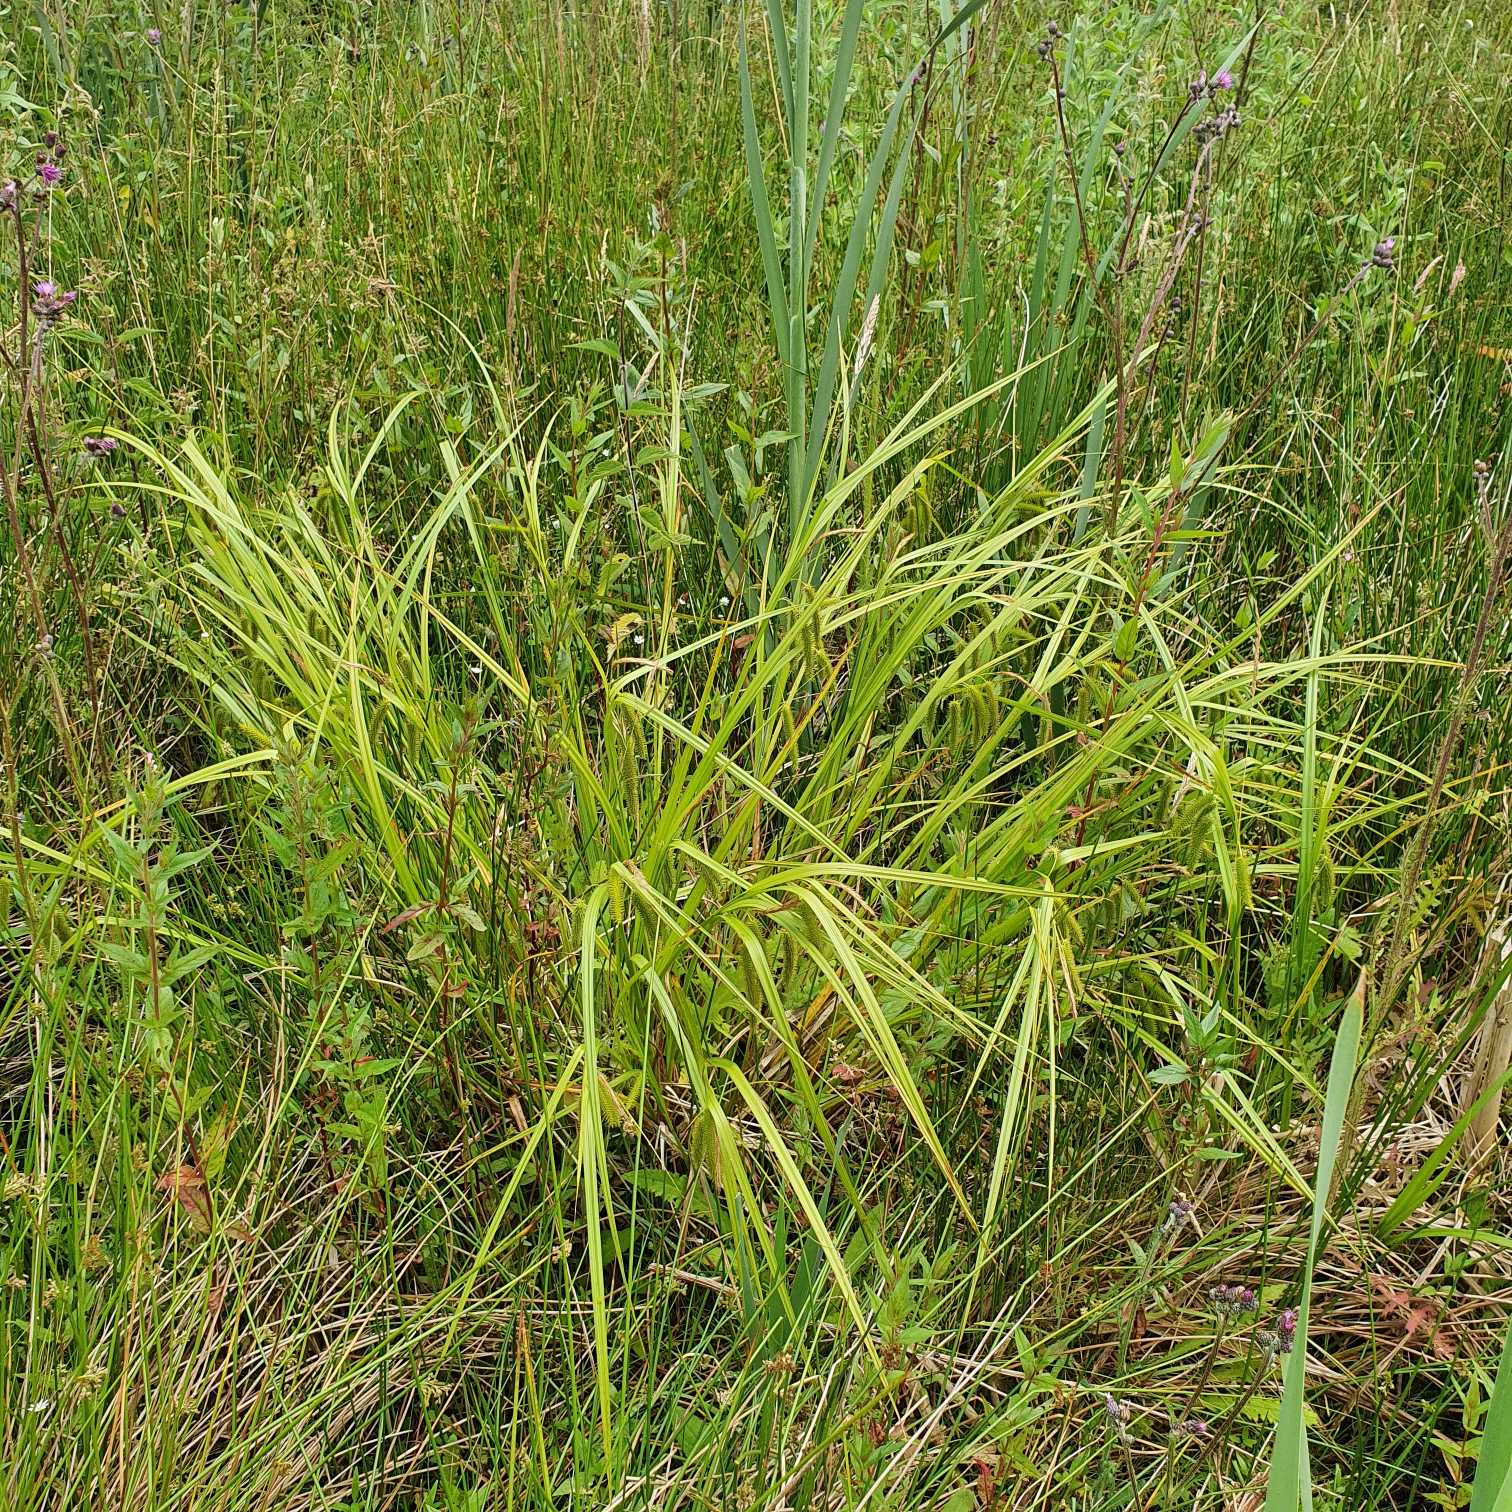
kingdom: Plantae
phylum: Tracheophyta
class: Liliopsida
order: Poales
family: Cyperaceae
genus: Carex
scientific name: Carex pseudocyperus
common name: Knippe-star
